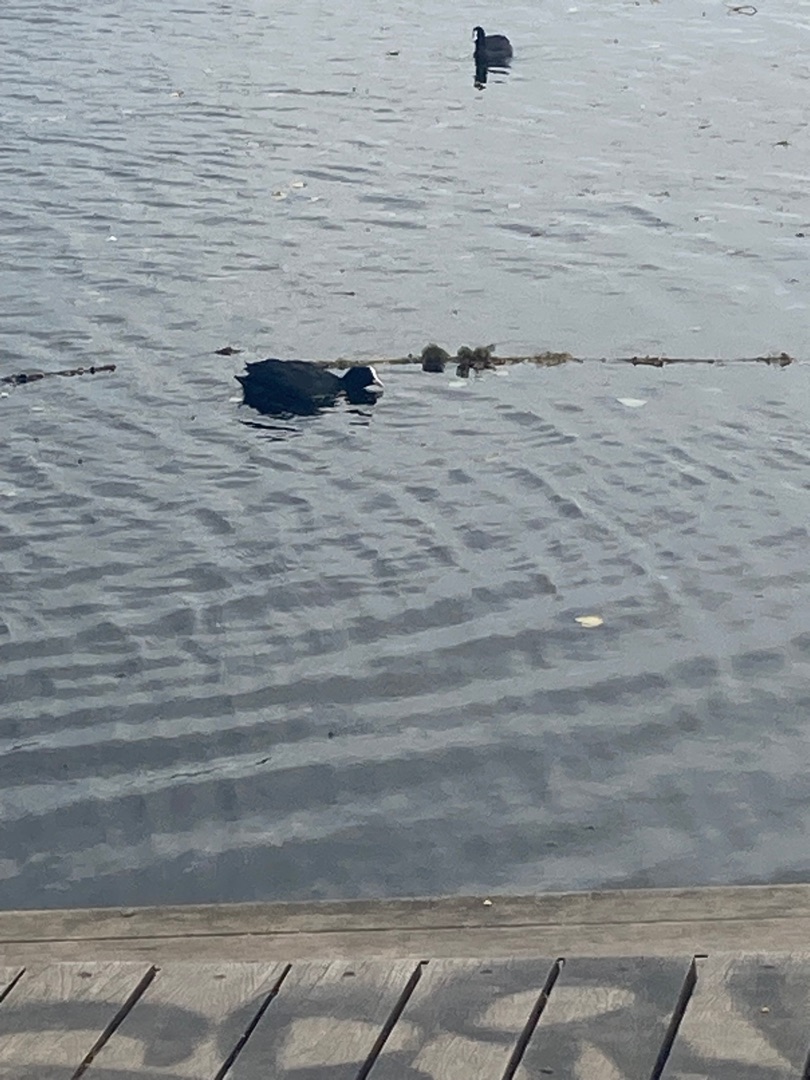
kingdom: Animalia
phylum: Chordata
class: Aves
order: Gruiformes
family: Rallidae
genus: Fulica
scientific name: Fulica atra
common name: Blishøne
